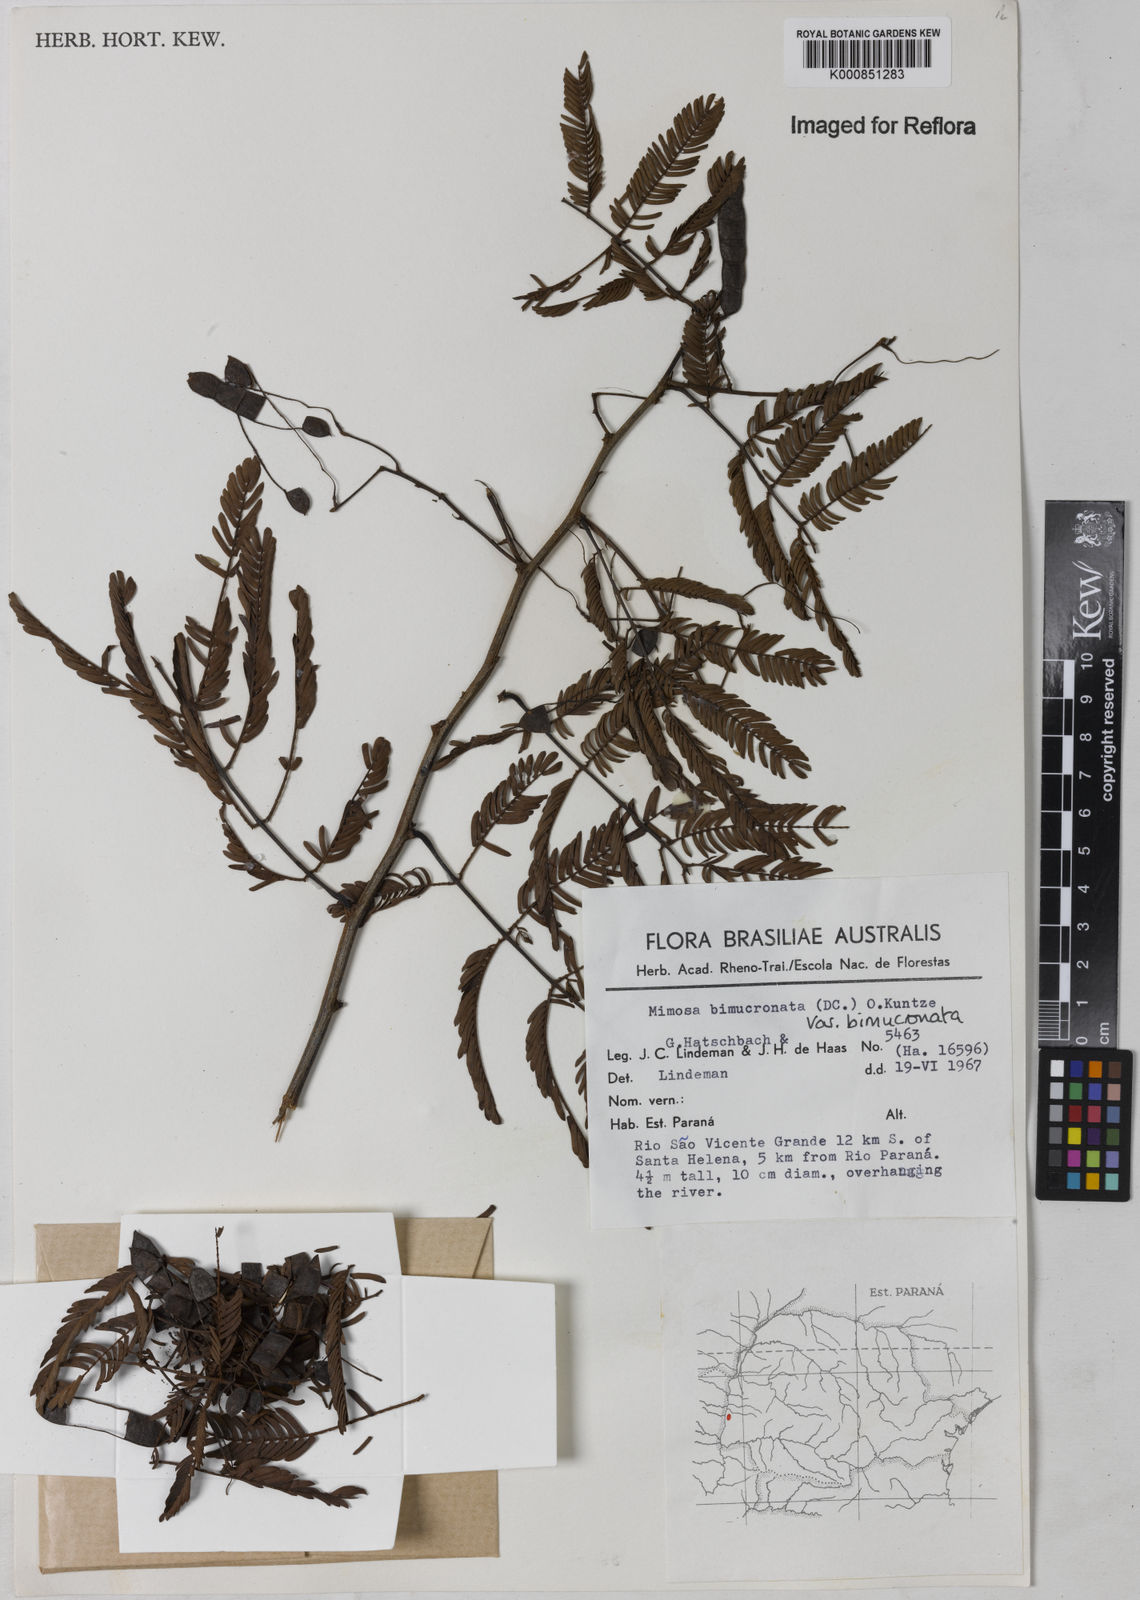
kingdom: Plantae
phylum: Tracheophyta
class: Magnoliopsida
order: Fabales
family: Fabaceae
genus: Mimosa
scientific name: Mimosa bimucronata
